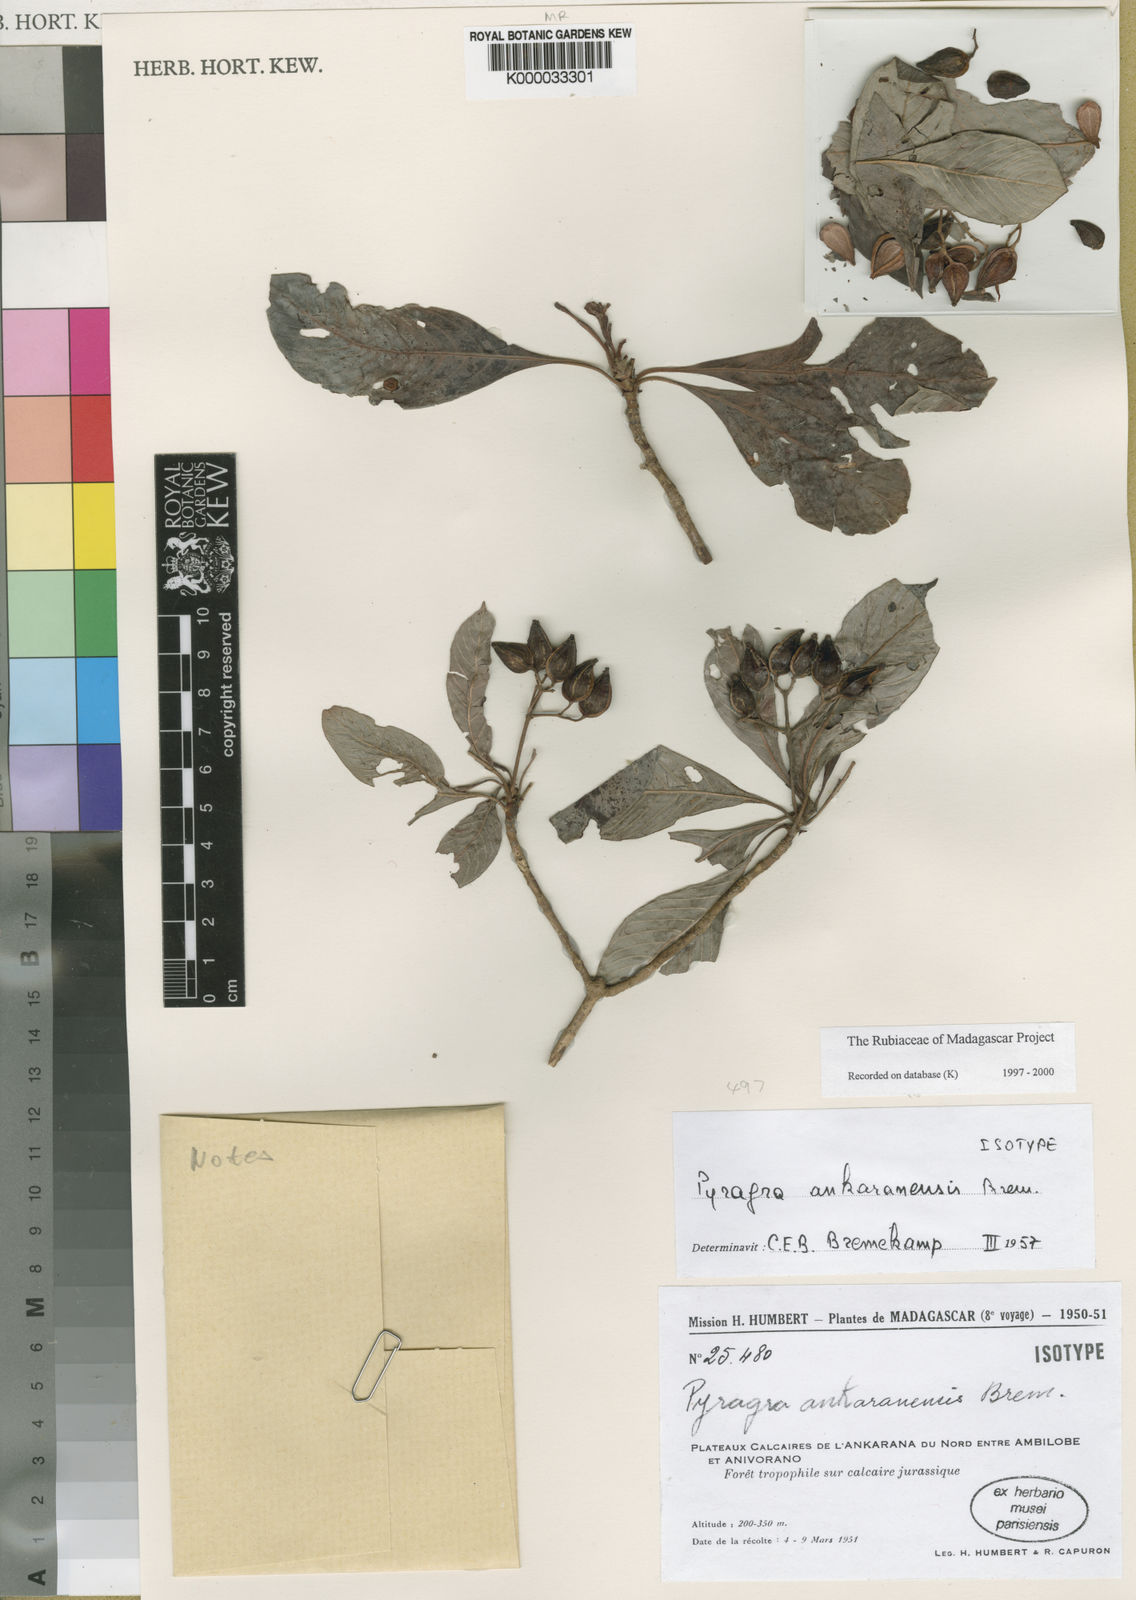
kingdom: Plantae
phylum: Tracheophyta
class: Magnoliopsida
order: Gentianales
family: Rubiaceae
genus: Psychotria
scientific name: Psychotria ankarensis
